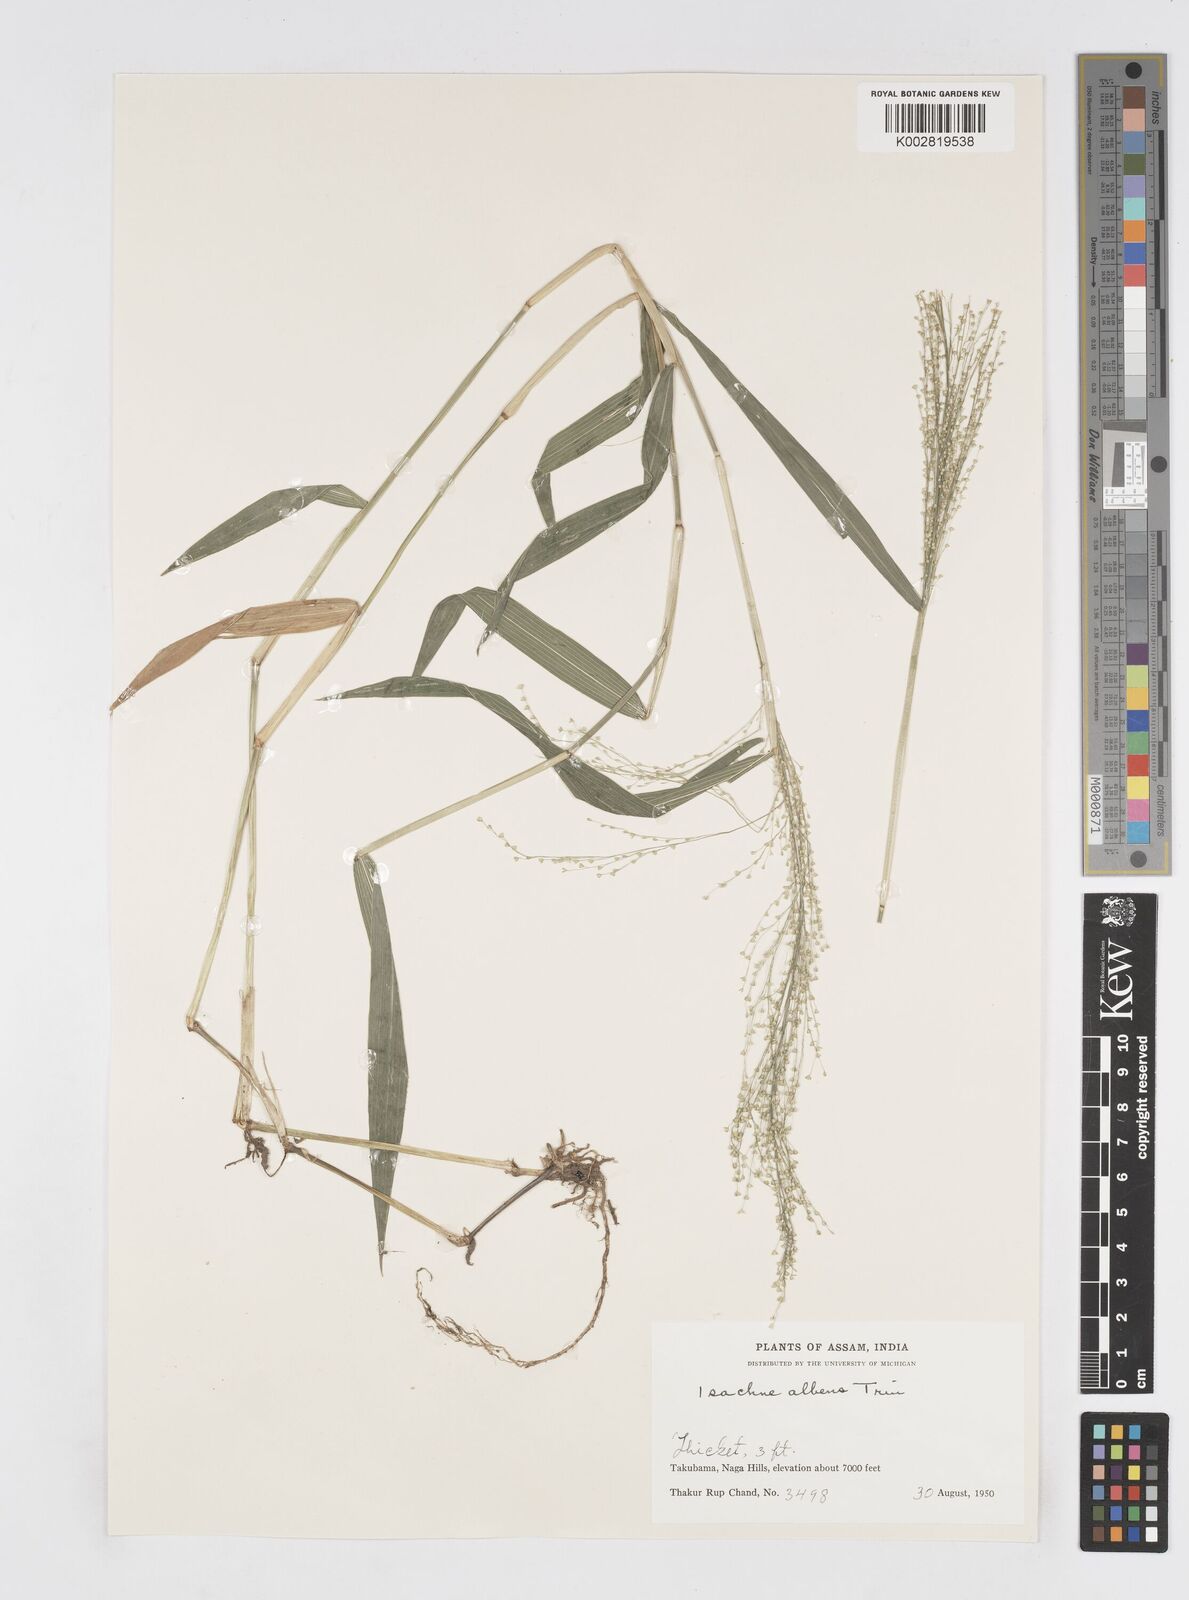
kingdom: Plantae
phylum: Tracheophyta
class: Liliopsida
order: Poales
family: Poaceae
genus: Isachne
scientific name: Isachne albens
